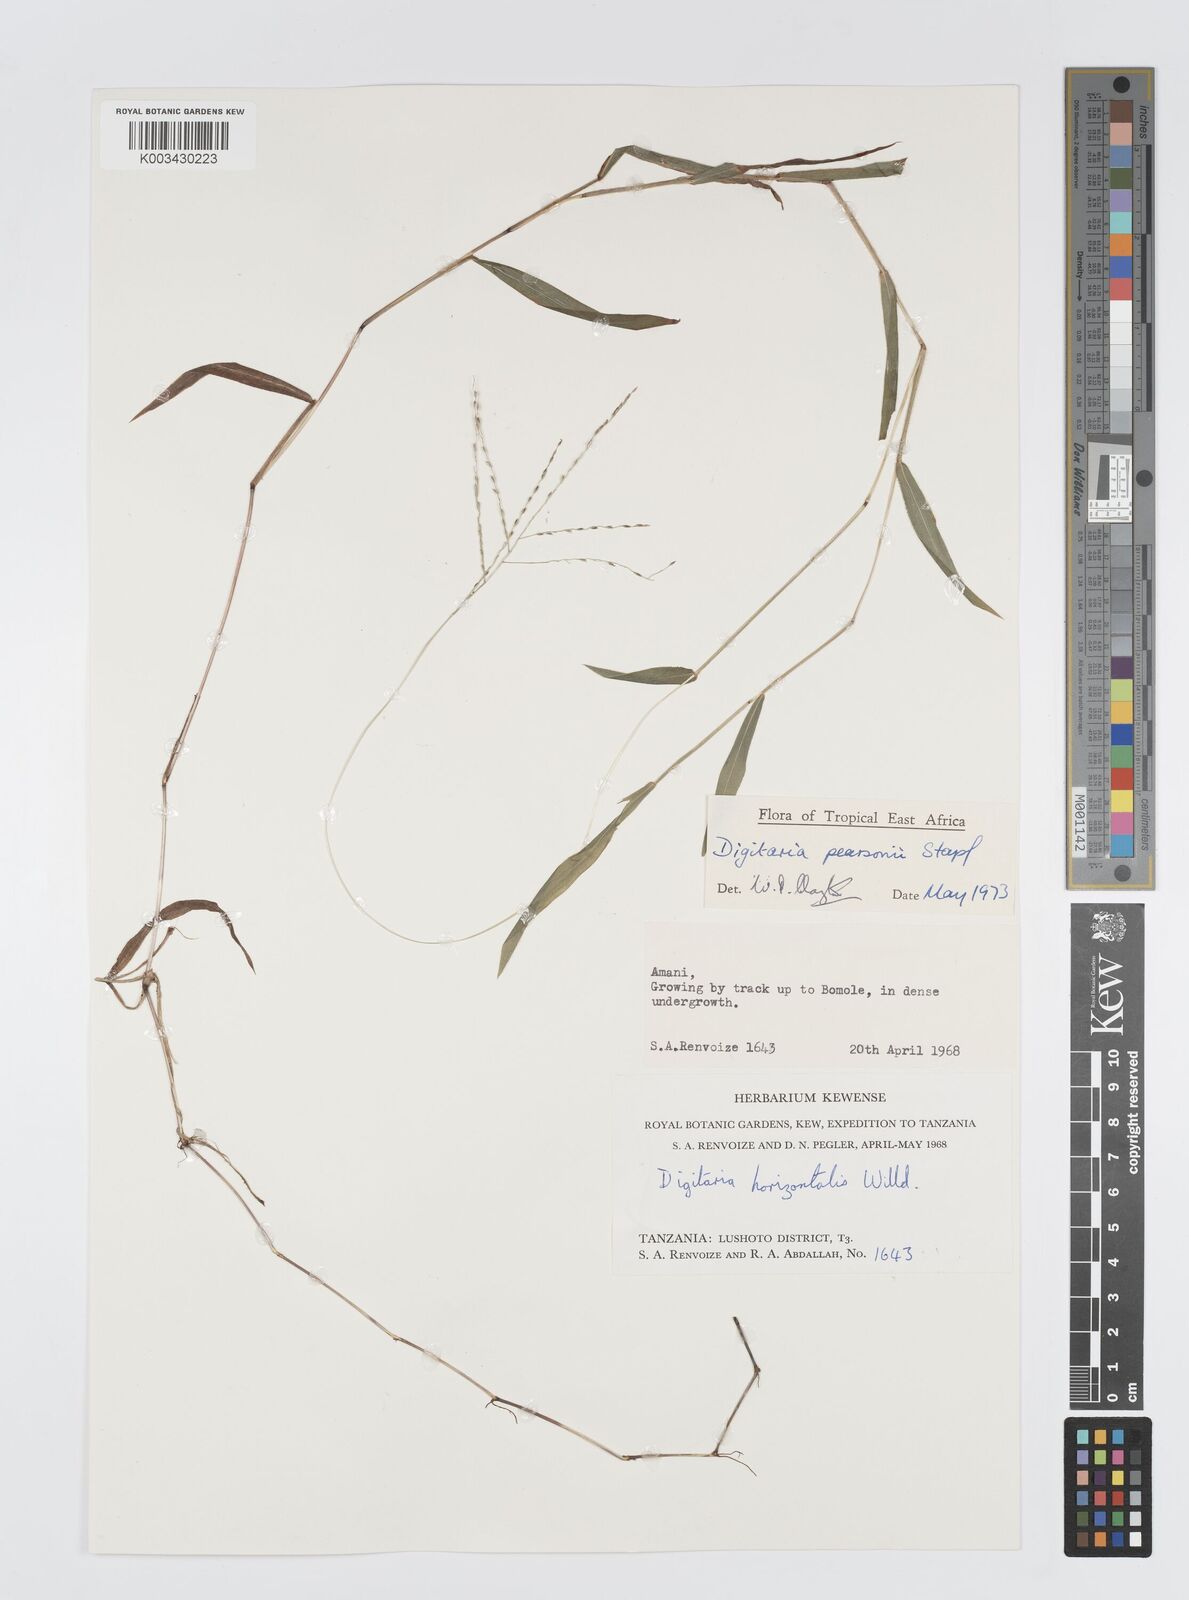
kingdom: Plantae
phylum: Tracheophyta
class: Liliopsida
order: Poales
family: Poaceae
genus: Digitaria
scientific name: Digitaria pearsonii
